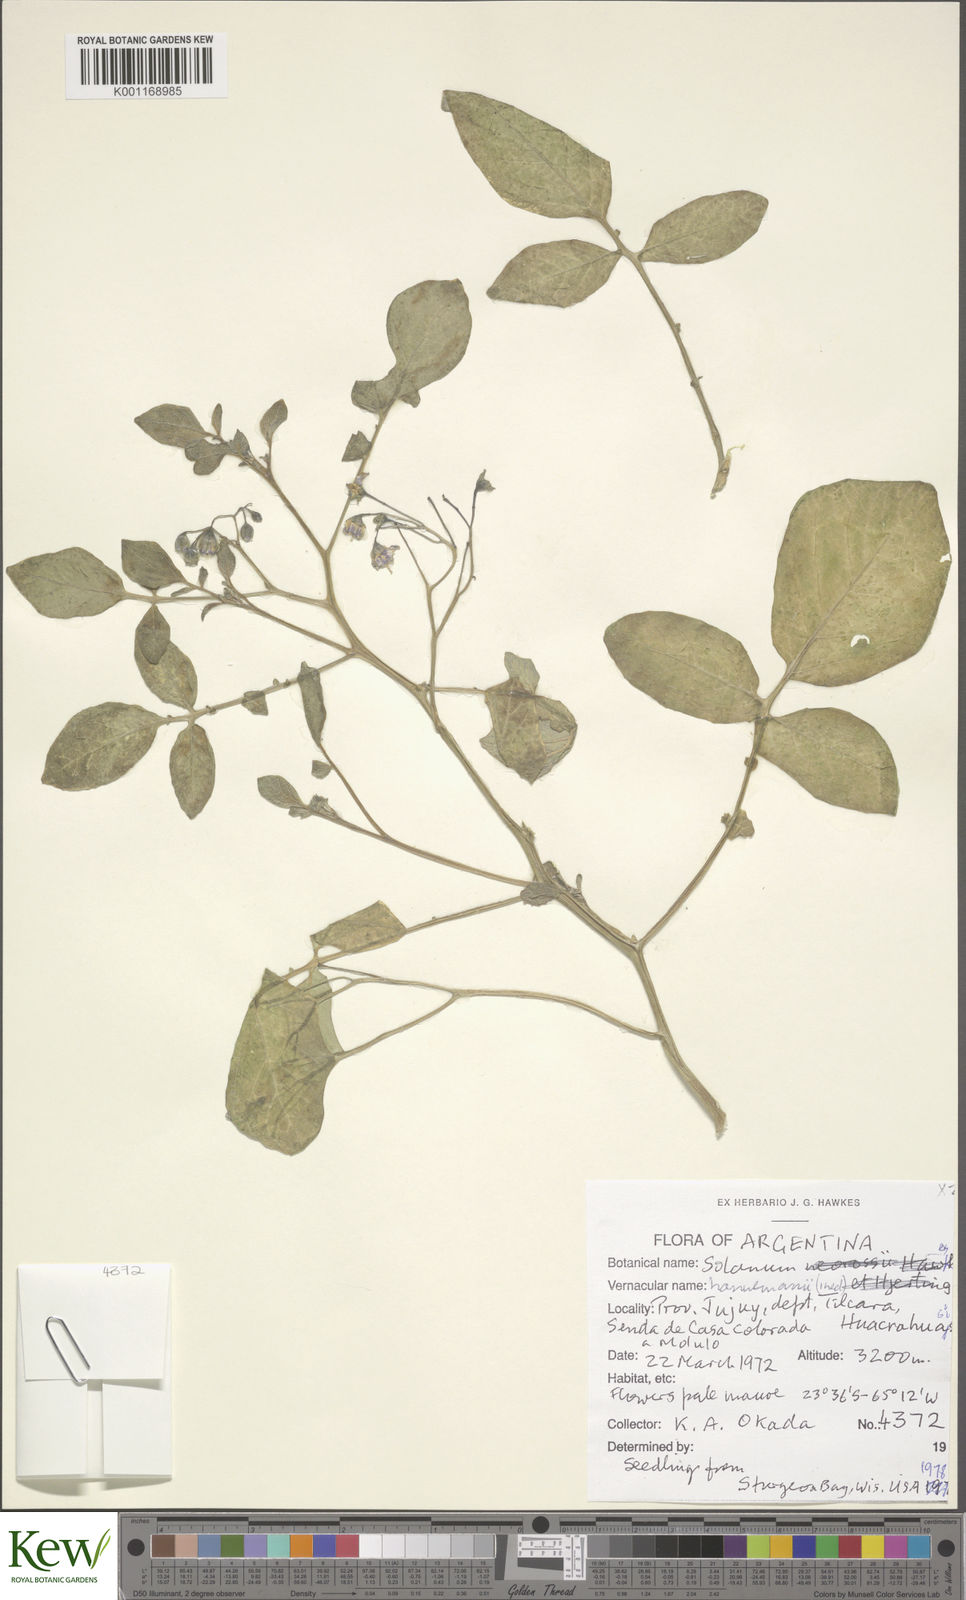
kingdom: Plantae
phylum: Tracheophyta
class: Magnoliopsida
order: Solanales
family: Solanaceae
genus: Solanum
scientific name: Solanum brevicaule
